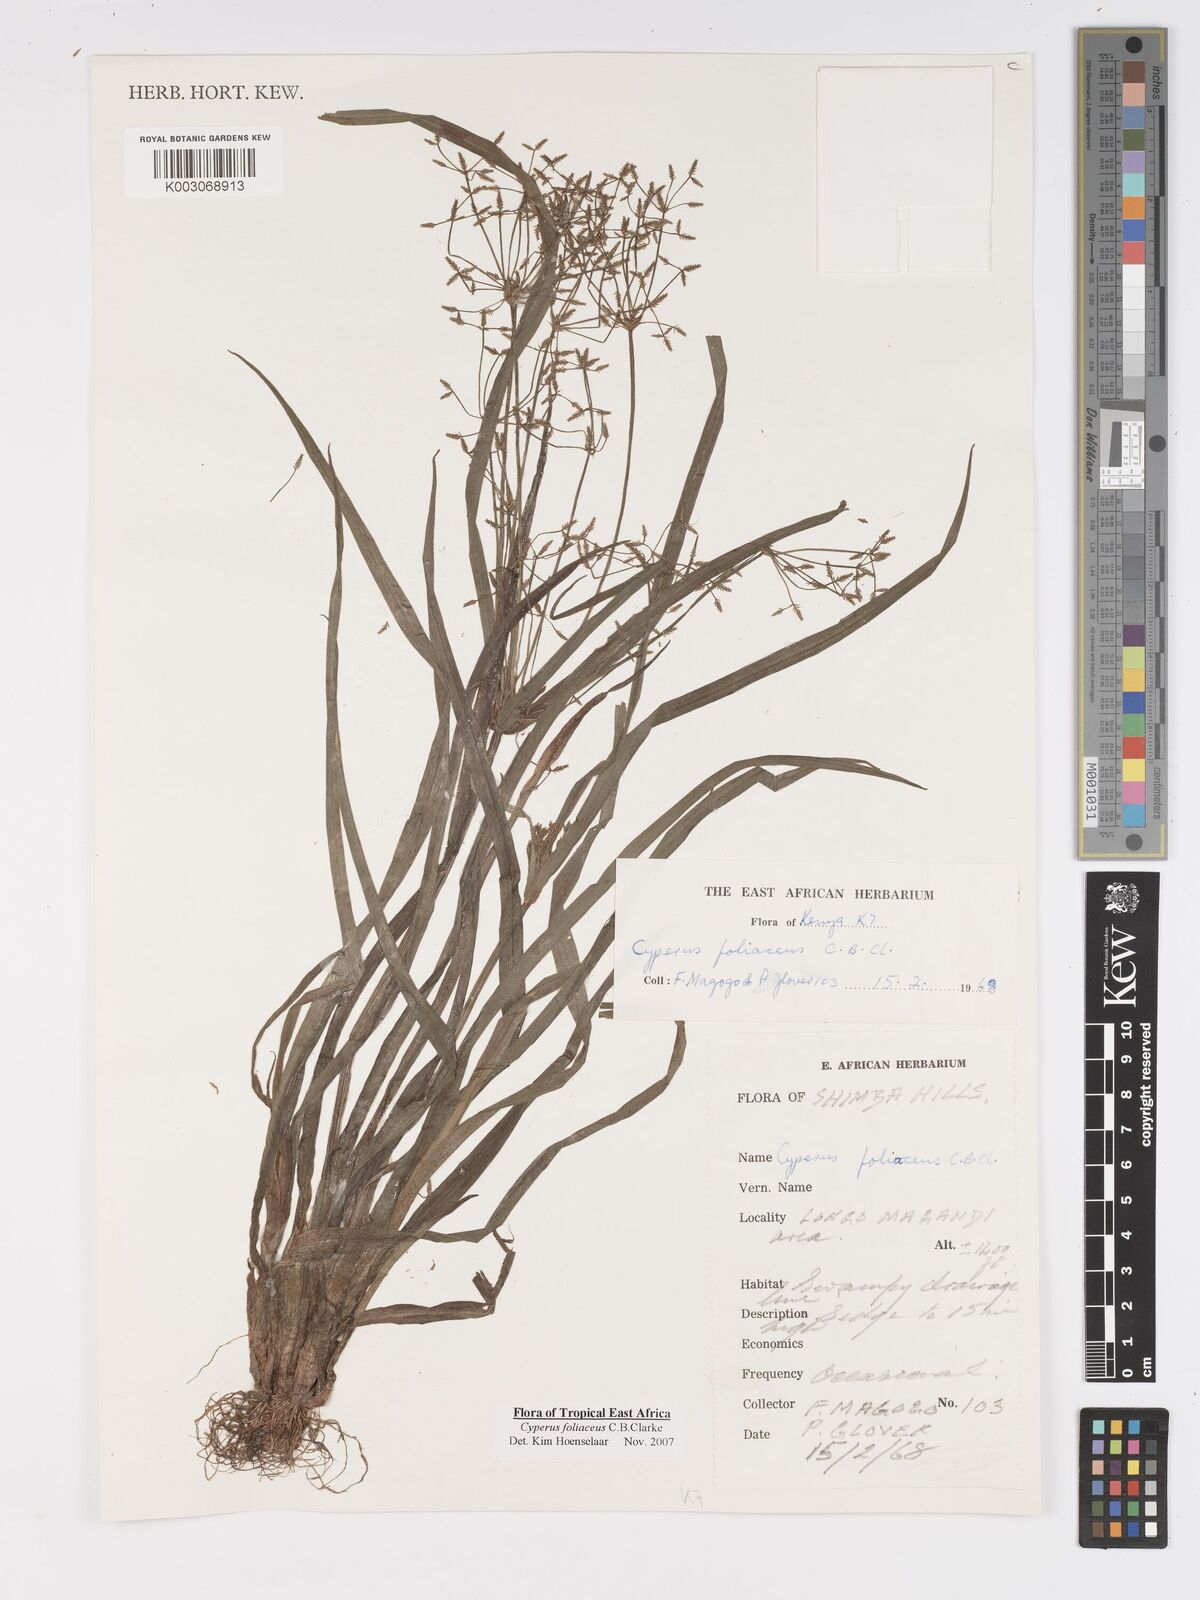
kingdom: Plantae
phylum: Tracheophyta
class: Liliopsida
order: Poales
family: Cyperaceae
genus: Cyperus
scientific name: Cyperus foliaceus
